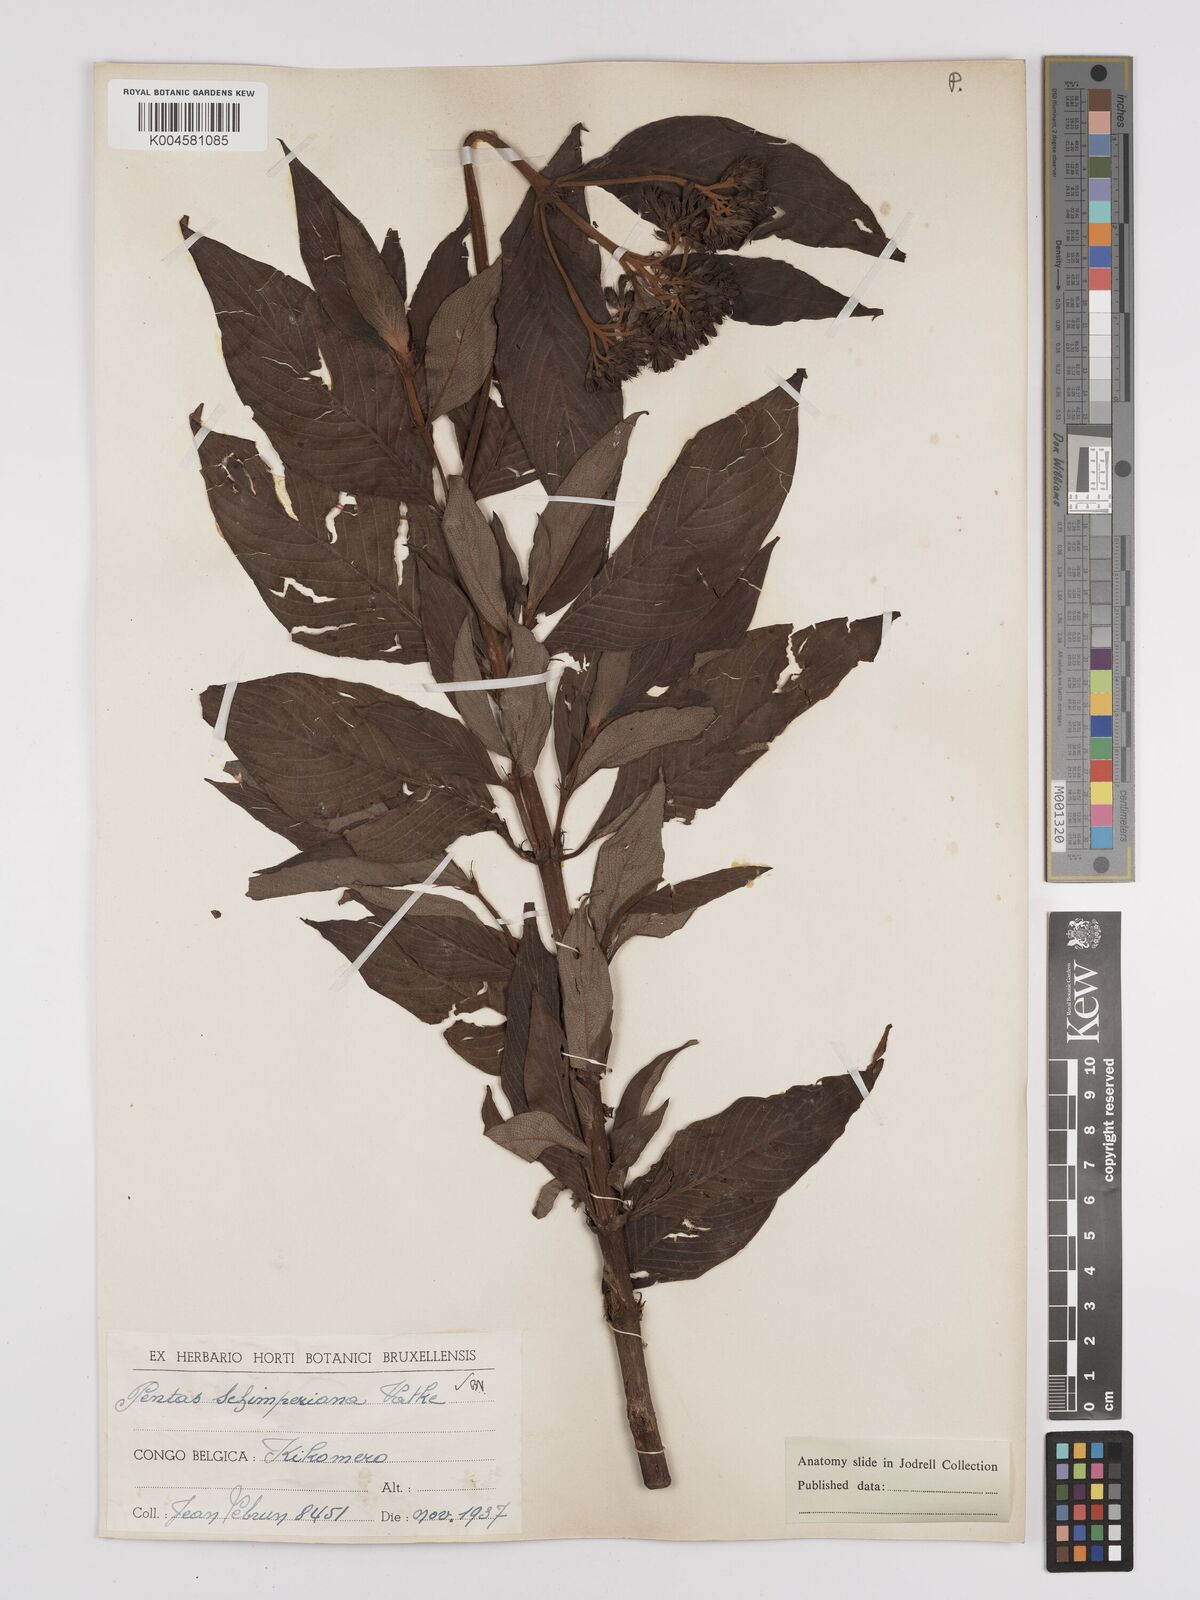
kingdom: Plantae
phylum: Tracheophyta
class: Magnoliopsida
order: Gentianales
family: Rubiaceae
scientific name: Rubiaceae
